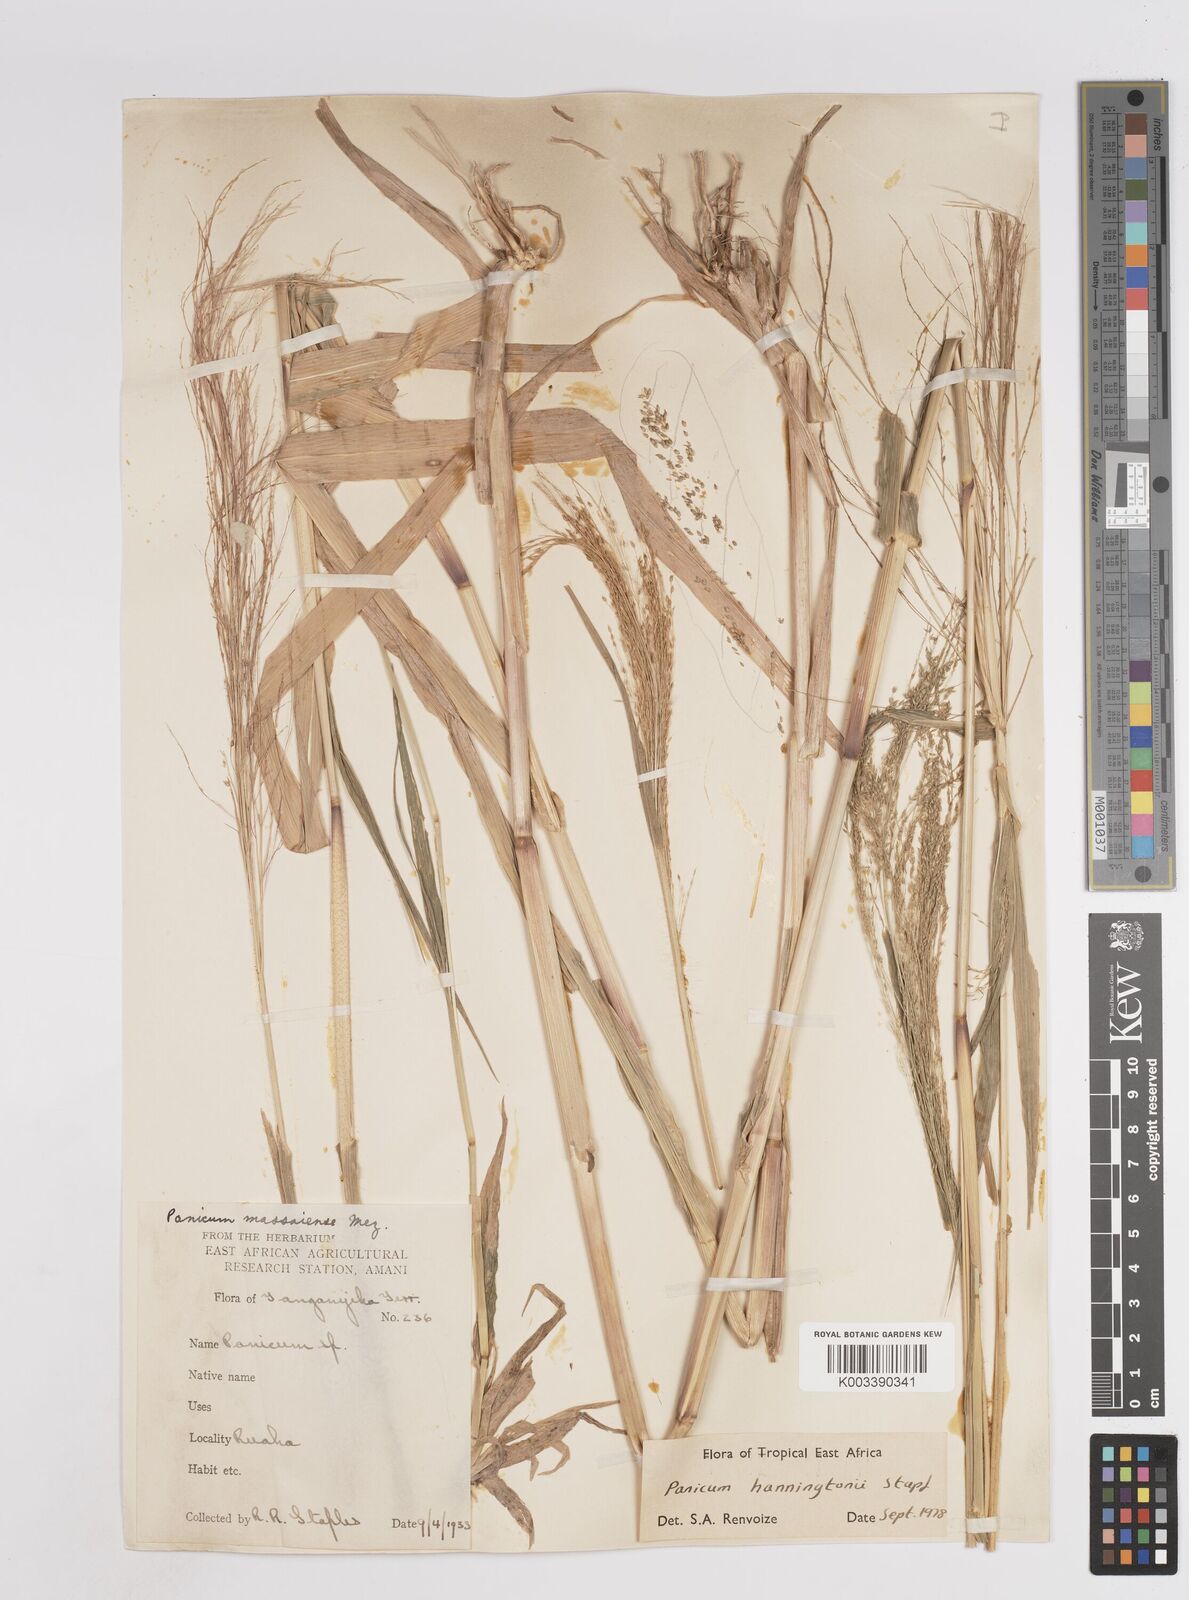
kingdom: Plantae
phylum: Tracheophyta
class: Liliopsida
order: Poales
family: Poaceae
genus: Panicum
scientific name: Panicum hanningtonii
